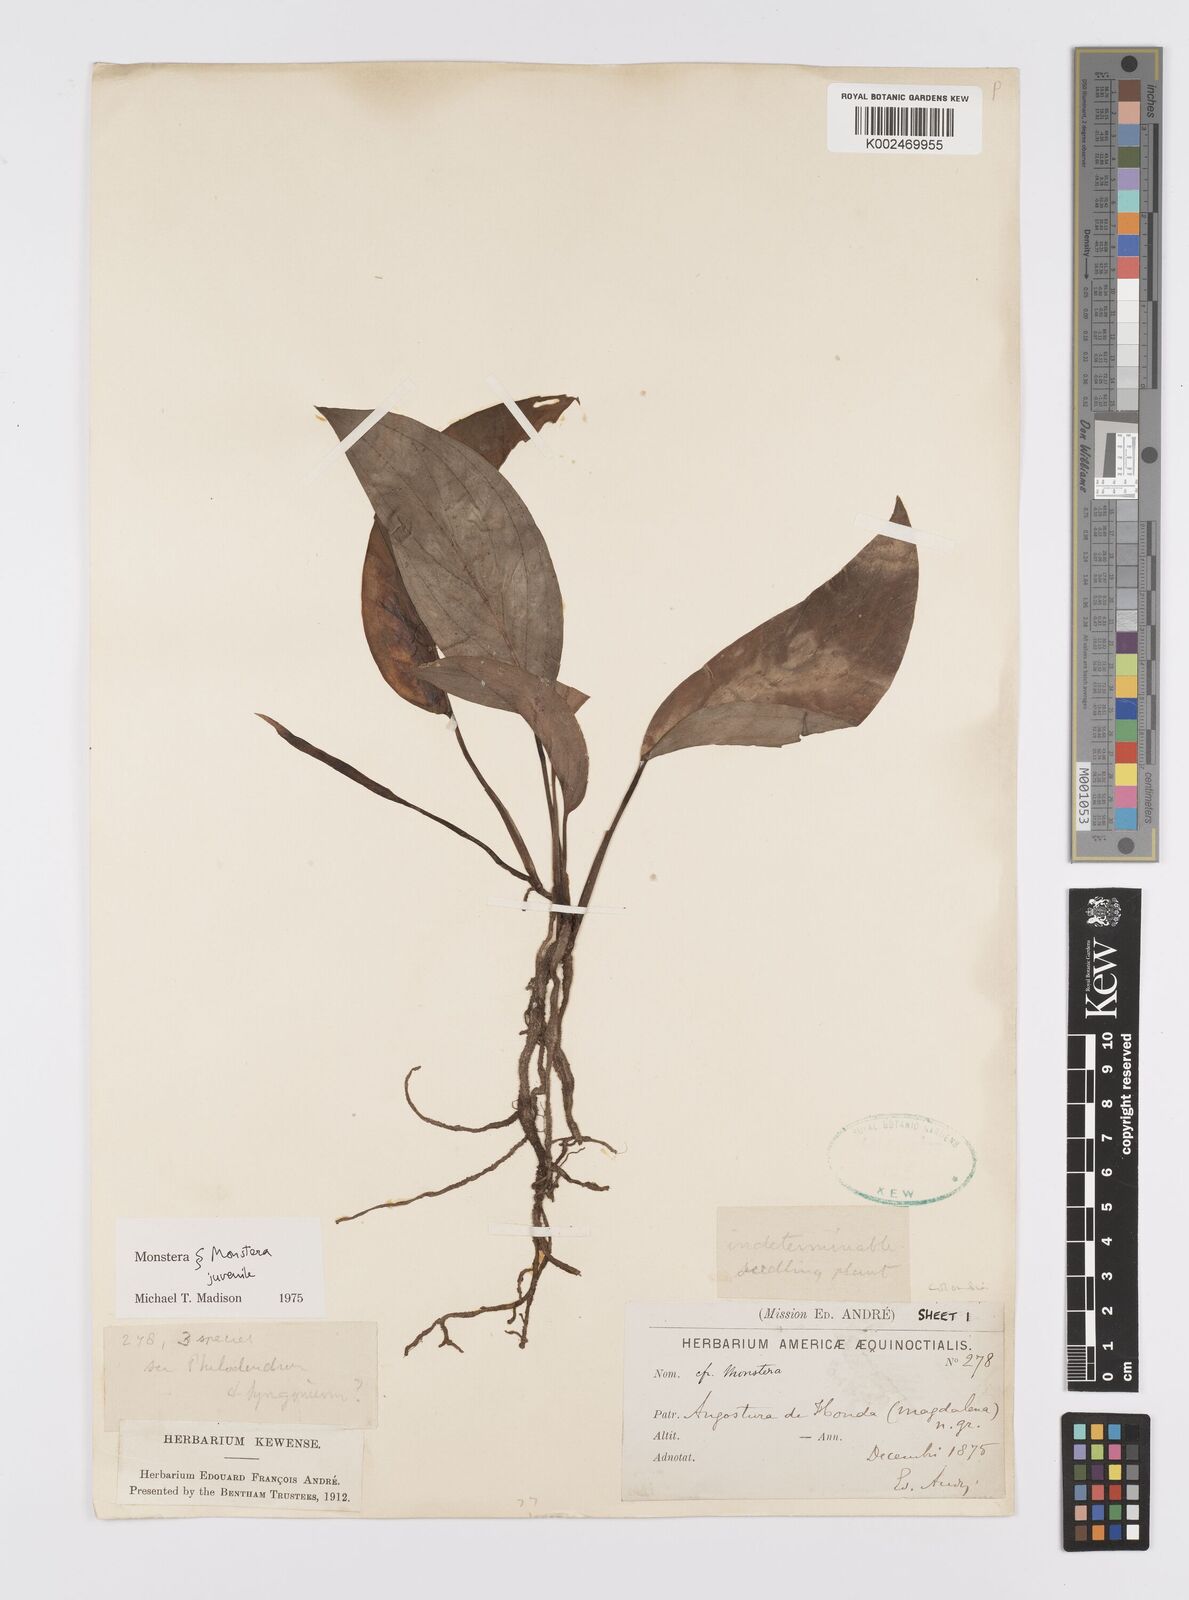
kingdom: Plantae
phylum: Tracheophyta
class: Liliopsida
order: Alismatales
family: Araceae
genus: Monstera
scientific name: Monstera
